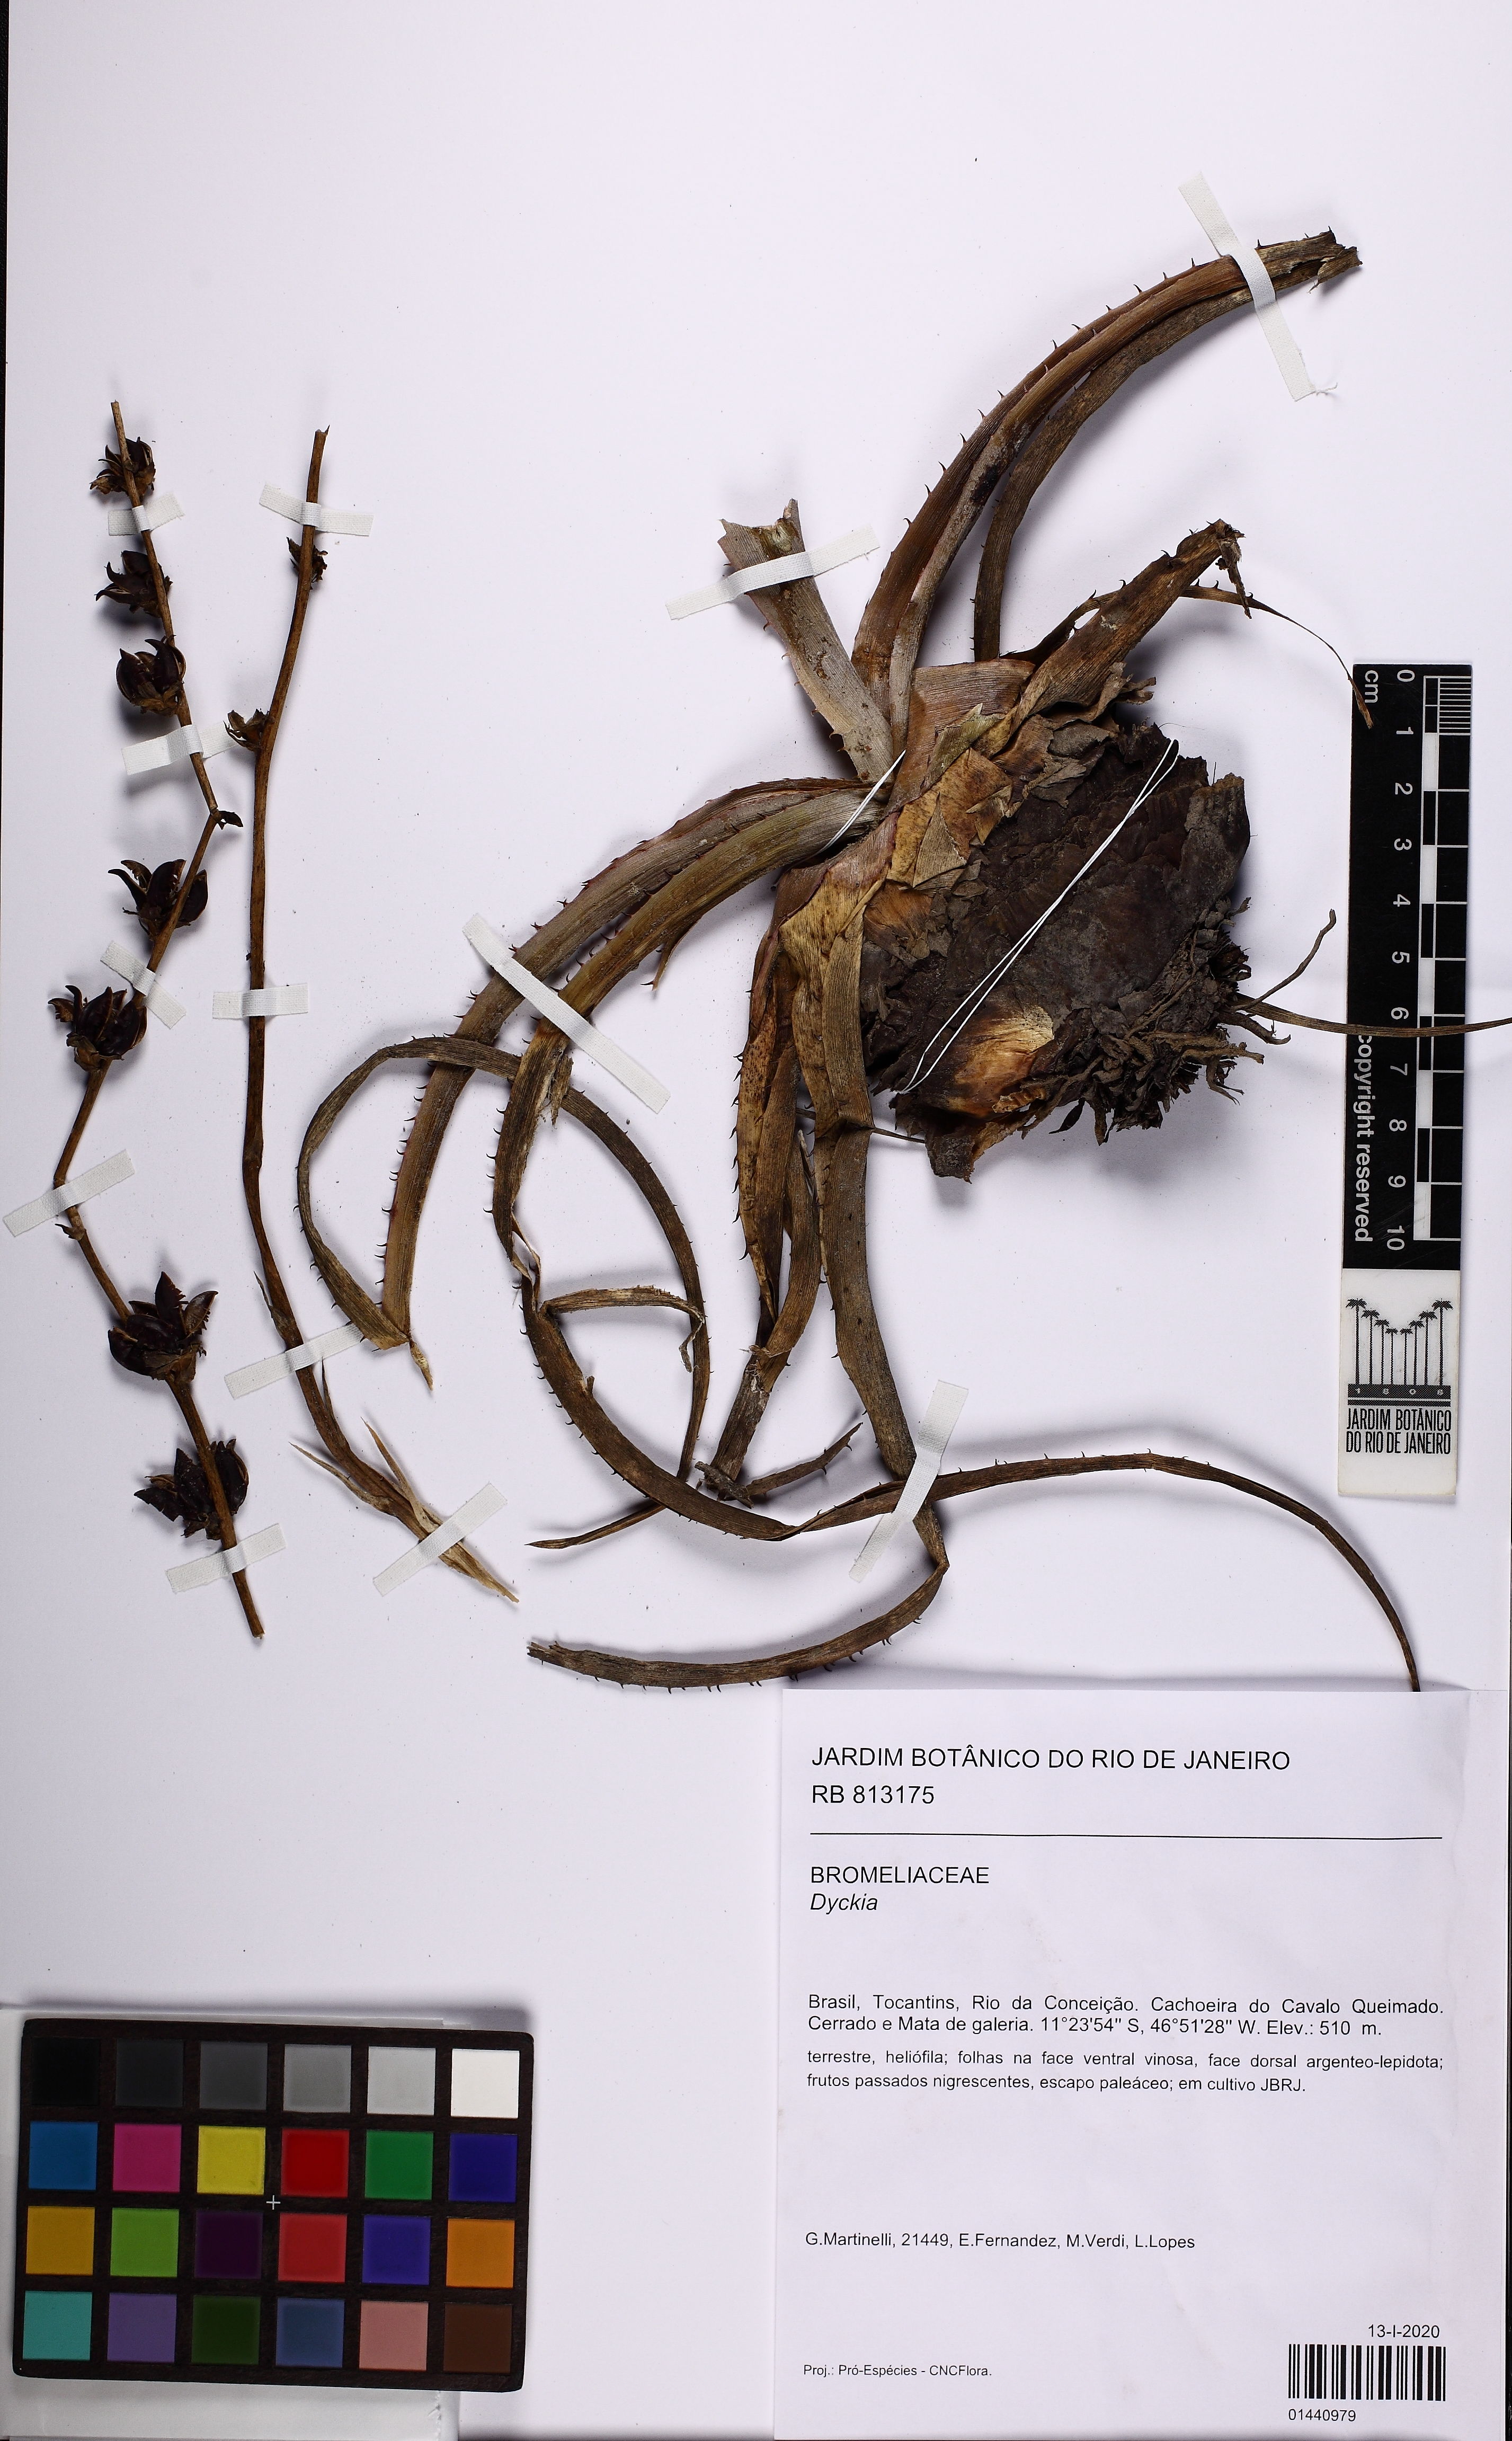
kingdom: Plantae
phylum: Tracheophyta
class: Liliopsida
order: Poales
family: Bromeliaceae
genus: Dyckia
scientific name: Dyckia
